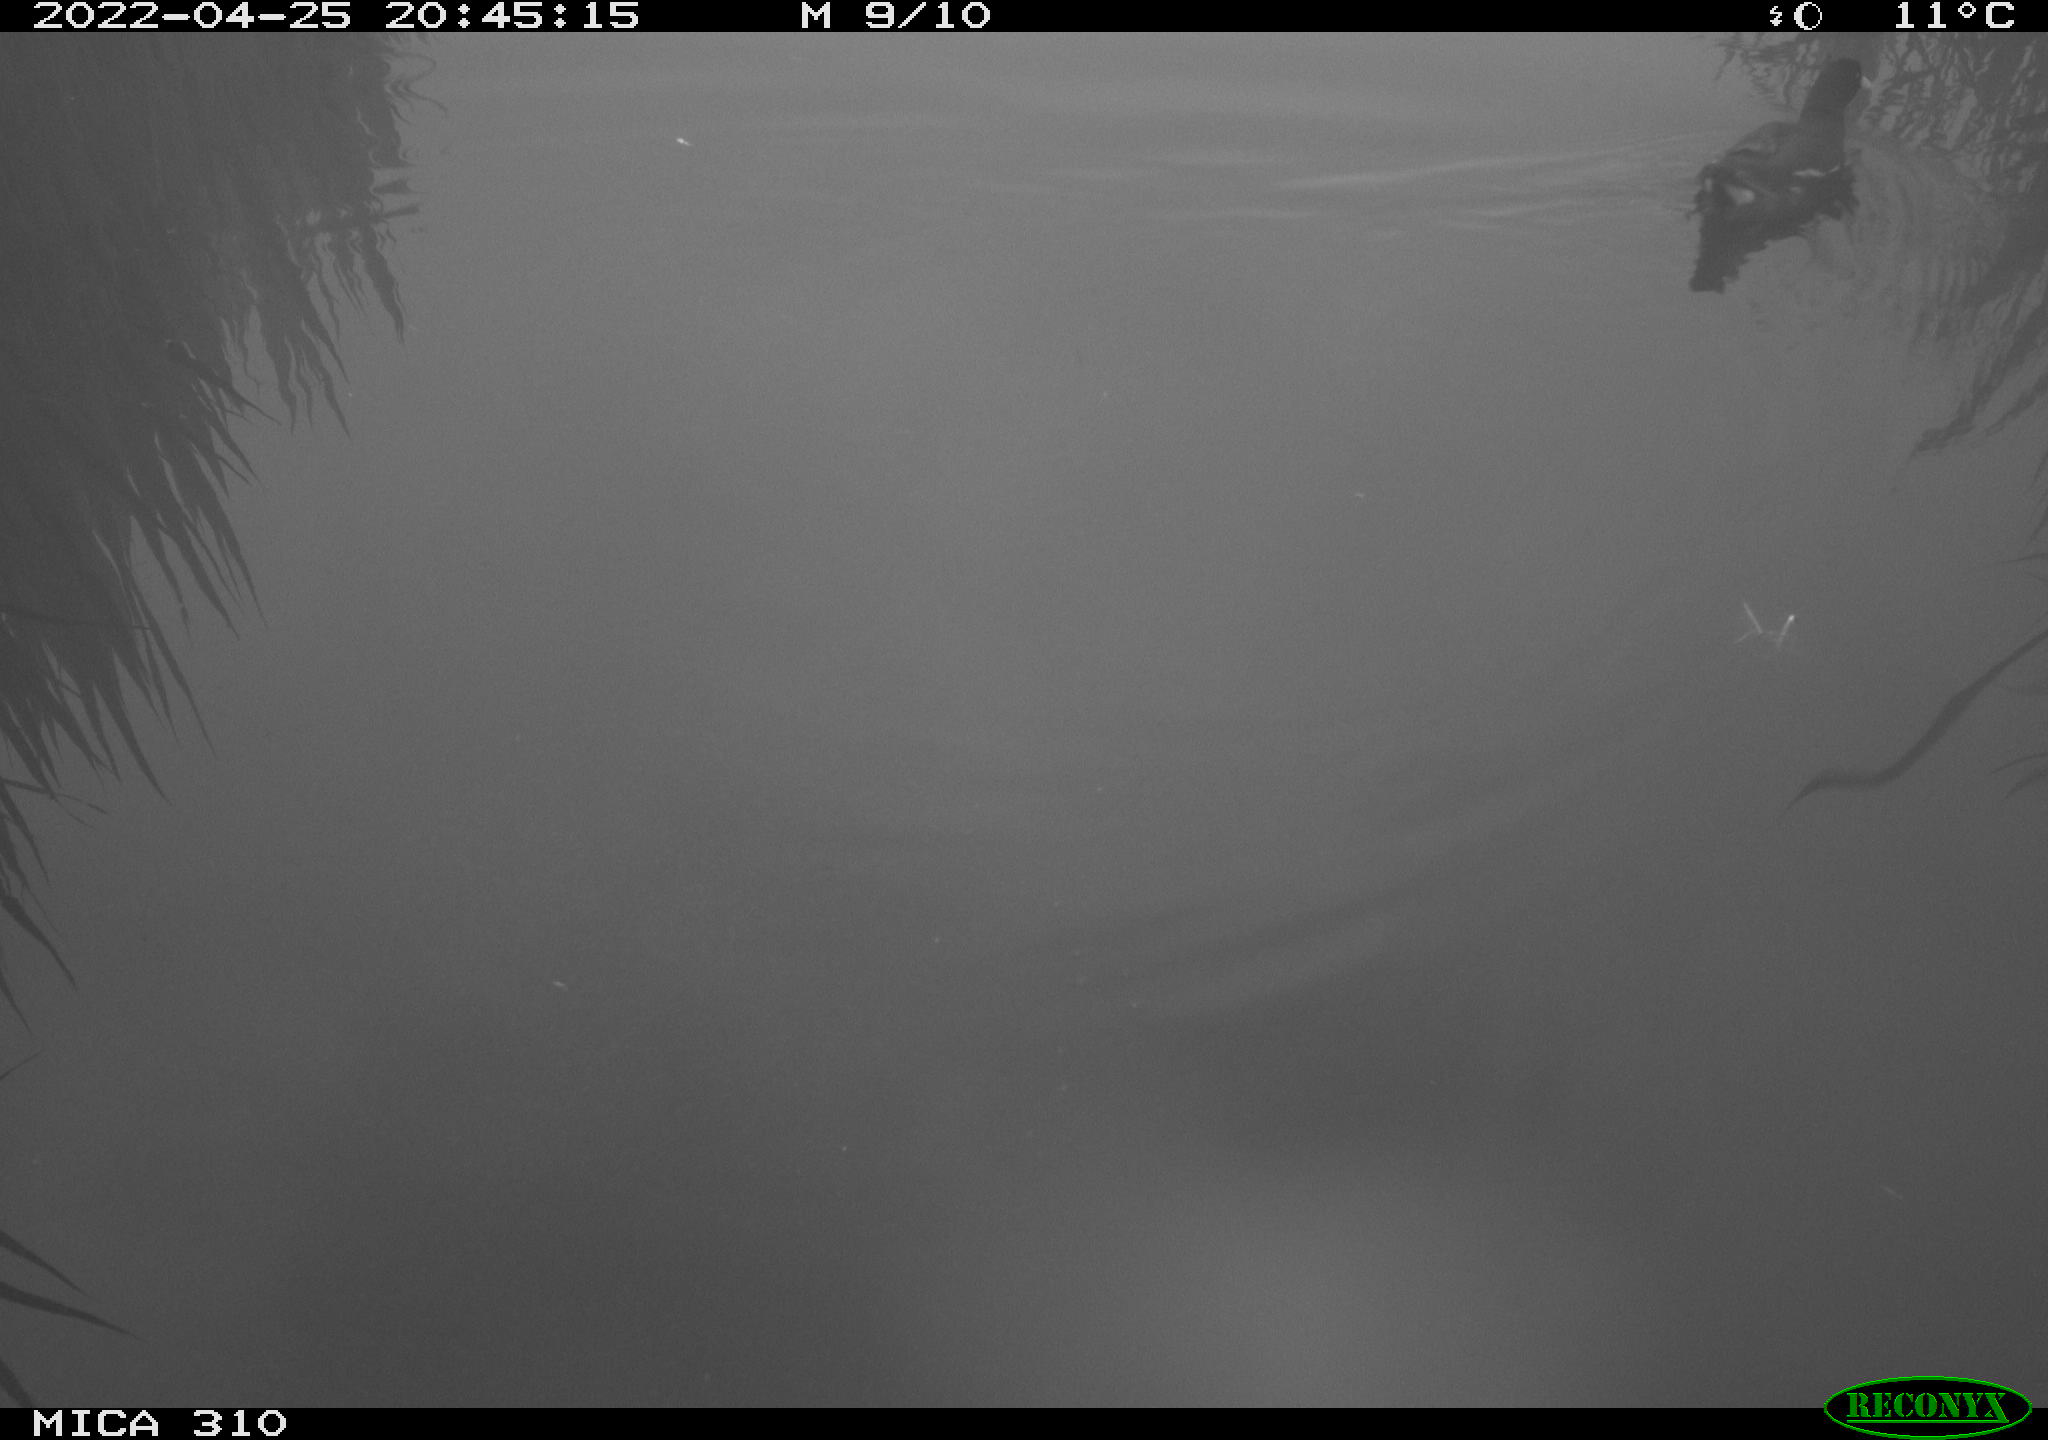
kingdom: Animalia
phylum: Chordata
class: Aves
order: Gruiformes
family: Rallidae
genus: Gallinula
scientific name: Gallinula chloropus
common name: Common moorhen
